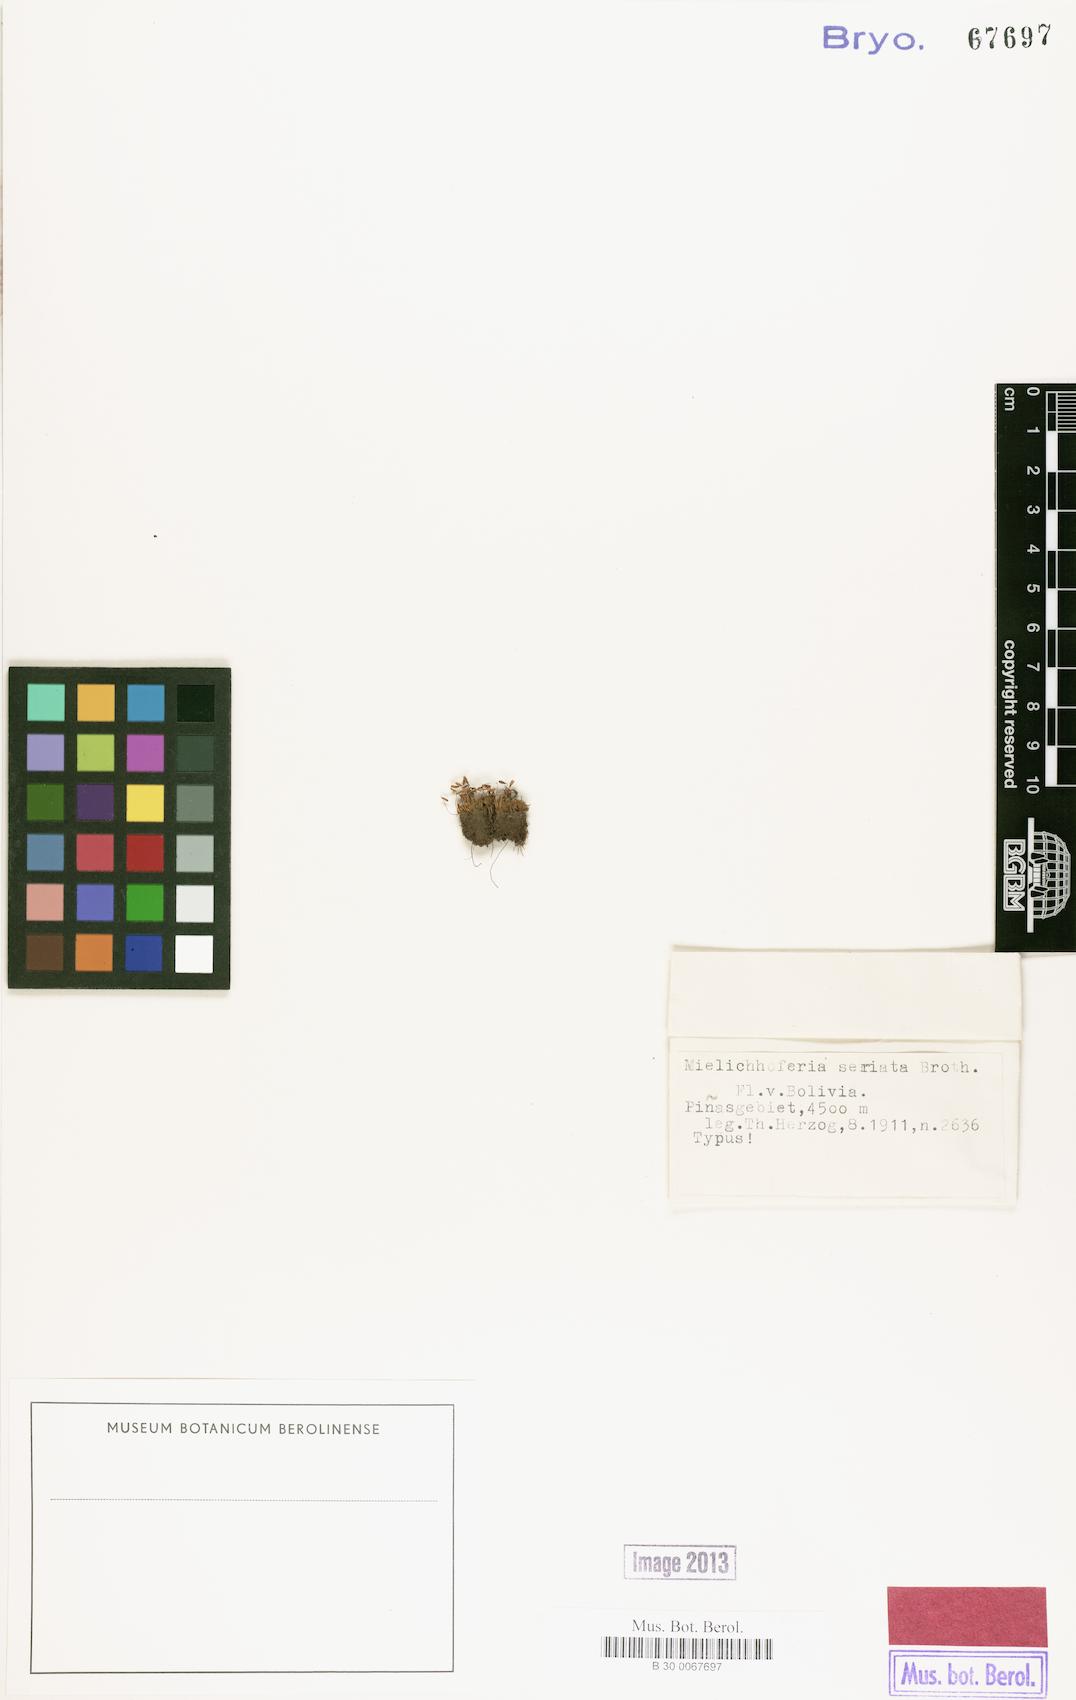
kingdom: Plantae
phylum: Bryophyta
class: Bryopsida
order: Bryales
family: Mniaceae
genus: Schizymenium
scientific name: Schizymenium cygnicollum
